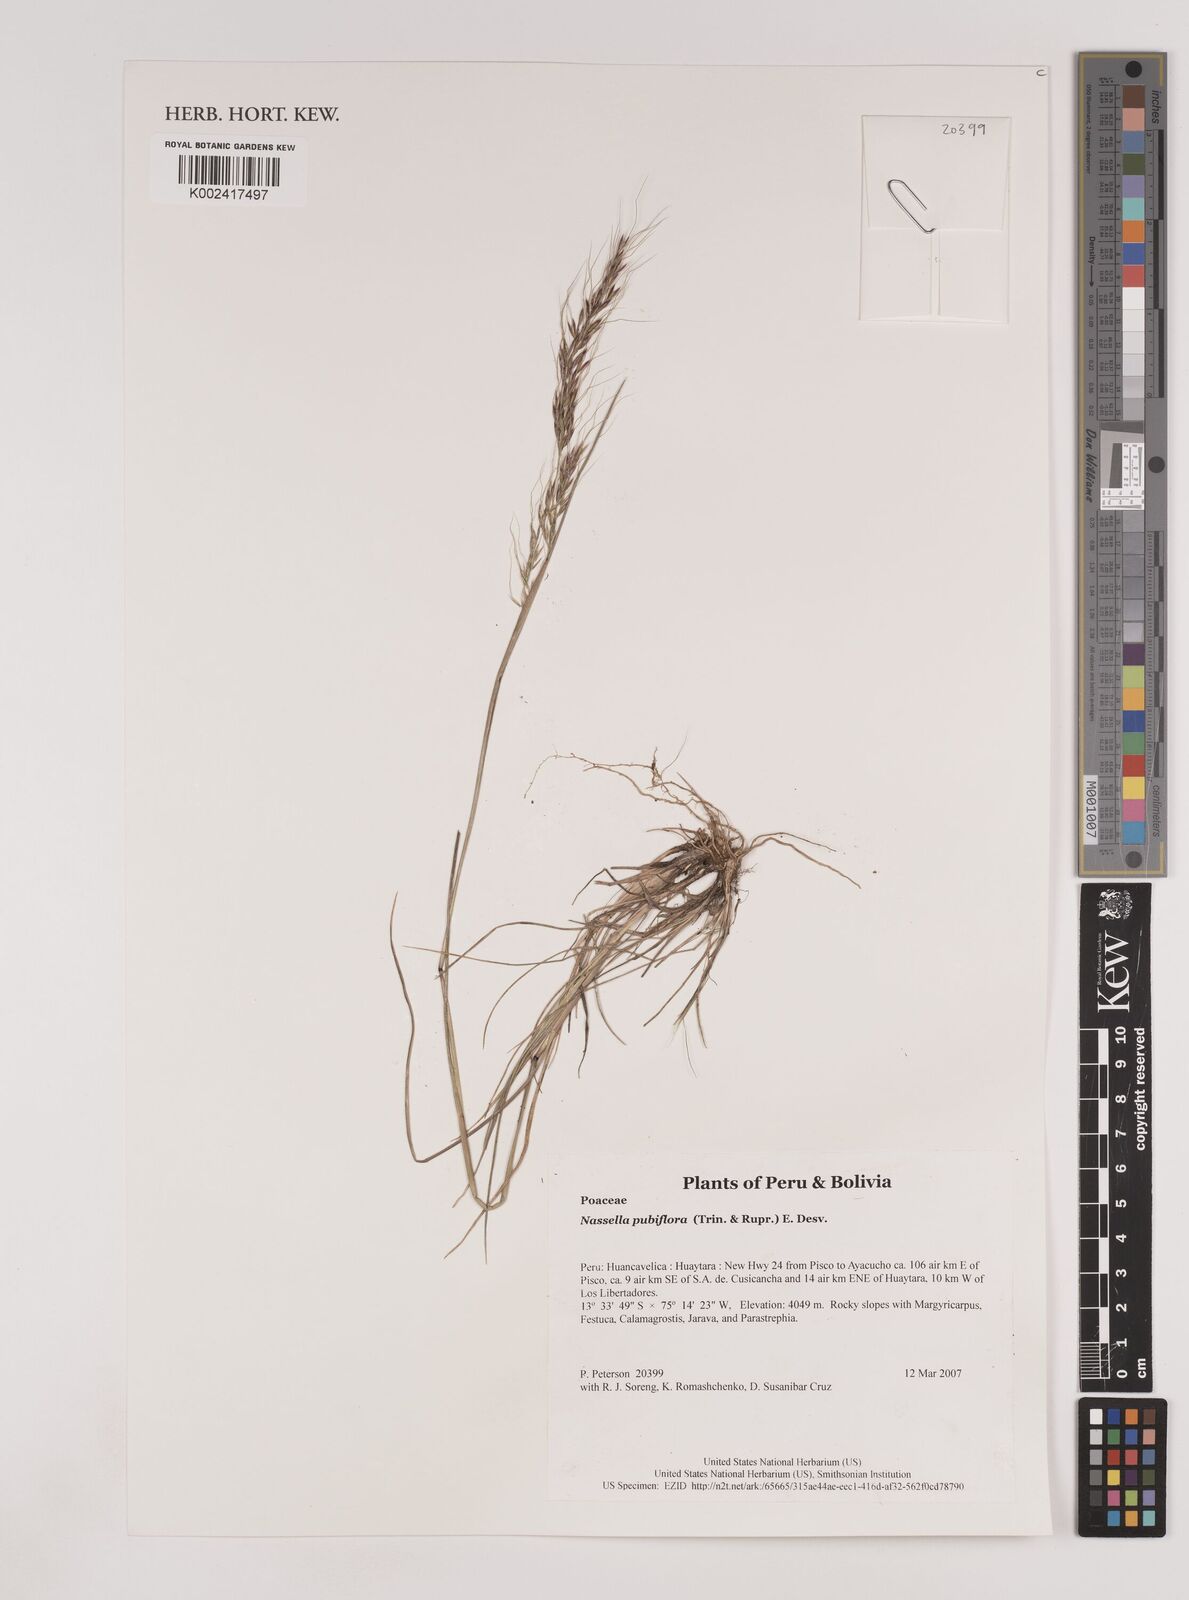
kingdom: Plantae
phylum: Tracheophyta
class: Liliopsida
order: Poales
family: Poaceae
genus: Nassella
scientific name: Nassella pubiflora
